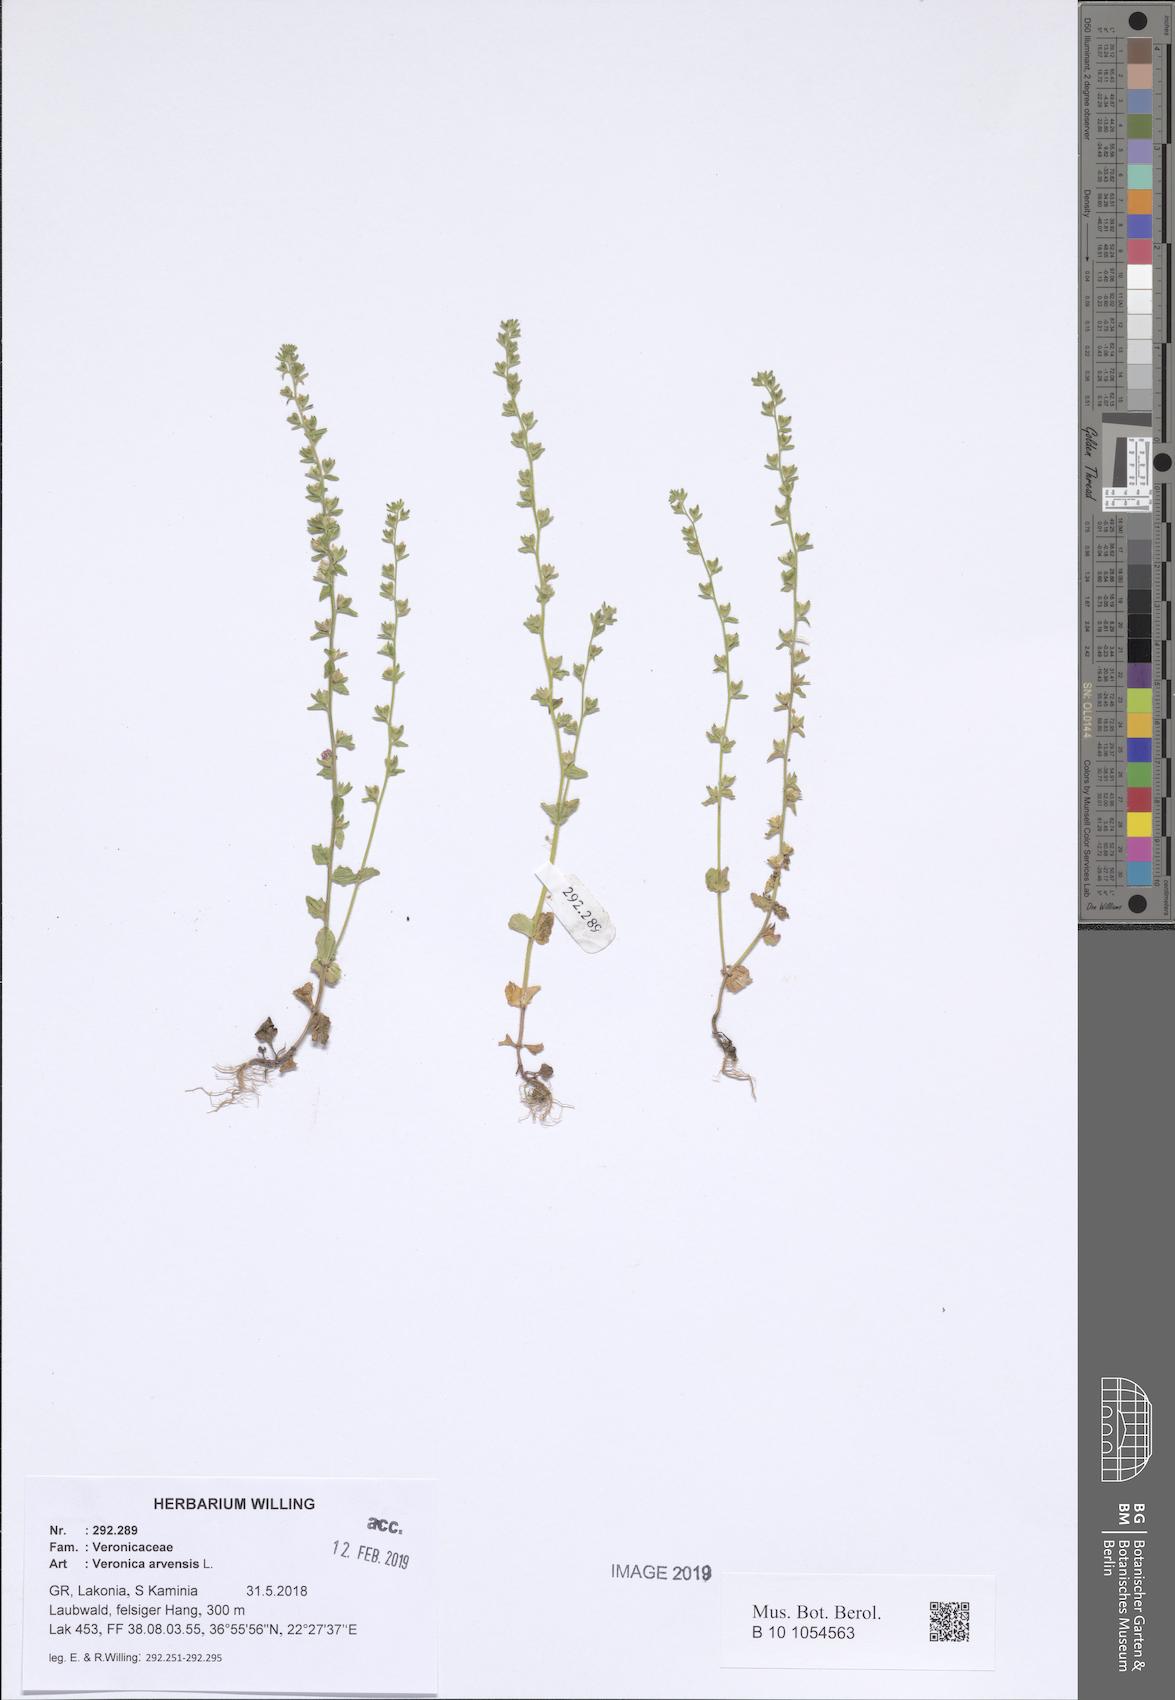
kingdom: Plantae
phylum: Tracheophyta
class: Magnoliopsida
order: Lamiales
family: Plantaginaceae
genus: Veronica
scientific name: Veronica arvensis
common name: Corn speedwell
